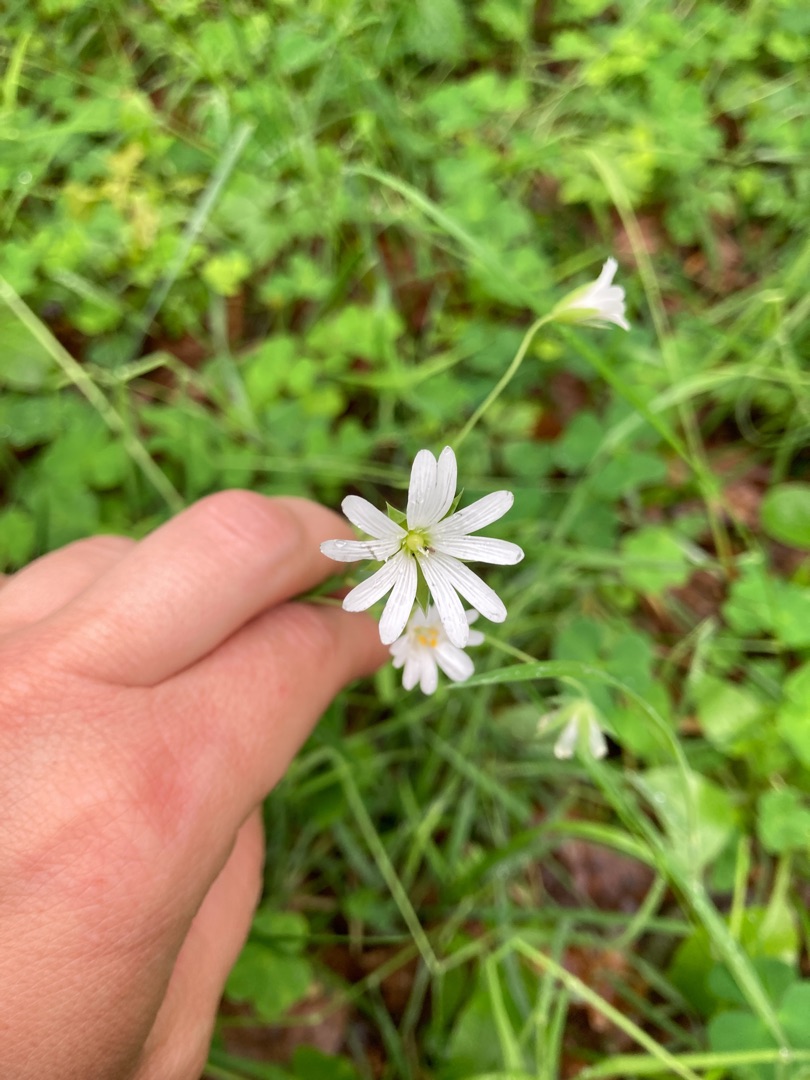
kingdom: Plantae
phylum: Tracheophyta
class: Magnoliopsida
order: Caryophyllales
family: Caryophyllaceae
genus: Rabelera
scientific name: Rabelera holostea
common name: Stor fladstjerne
